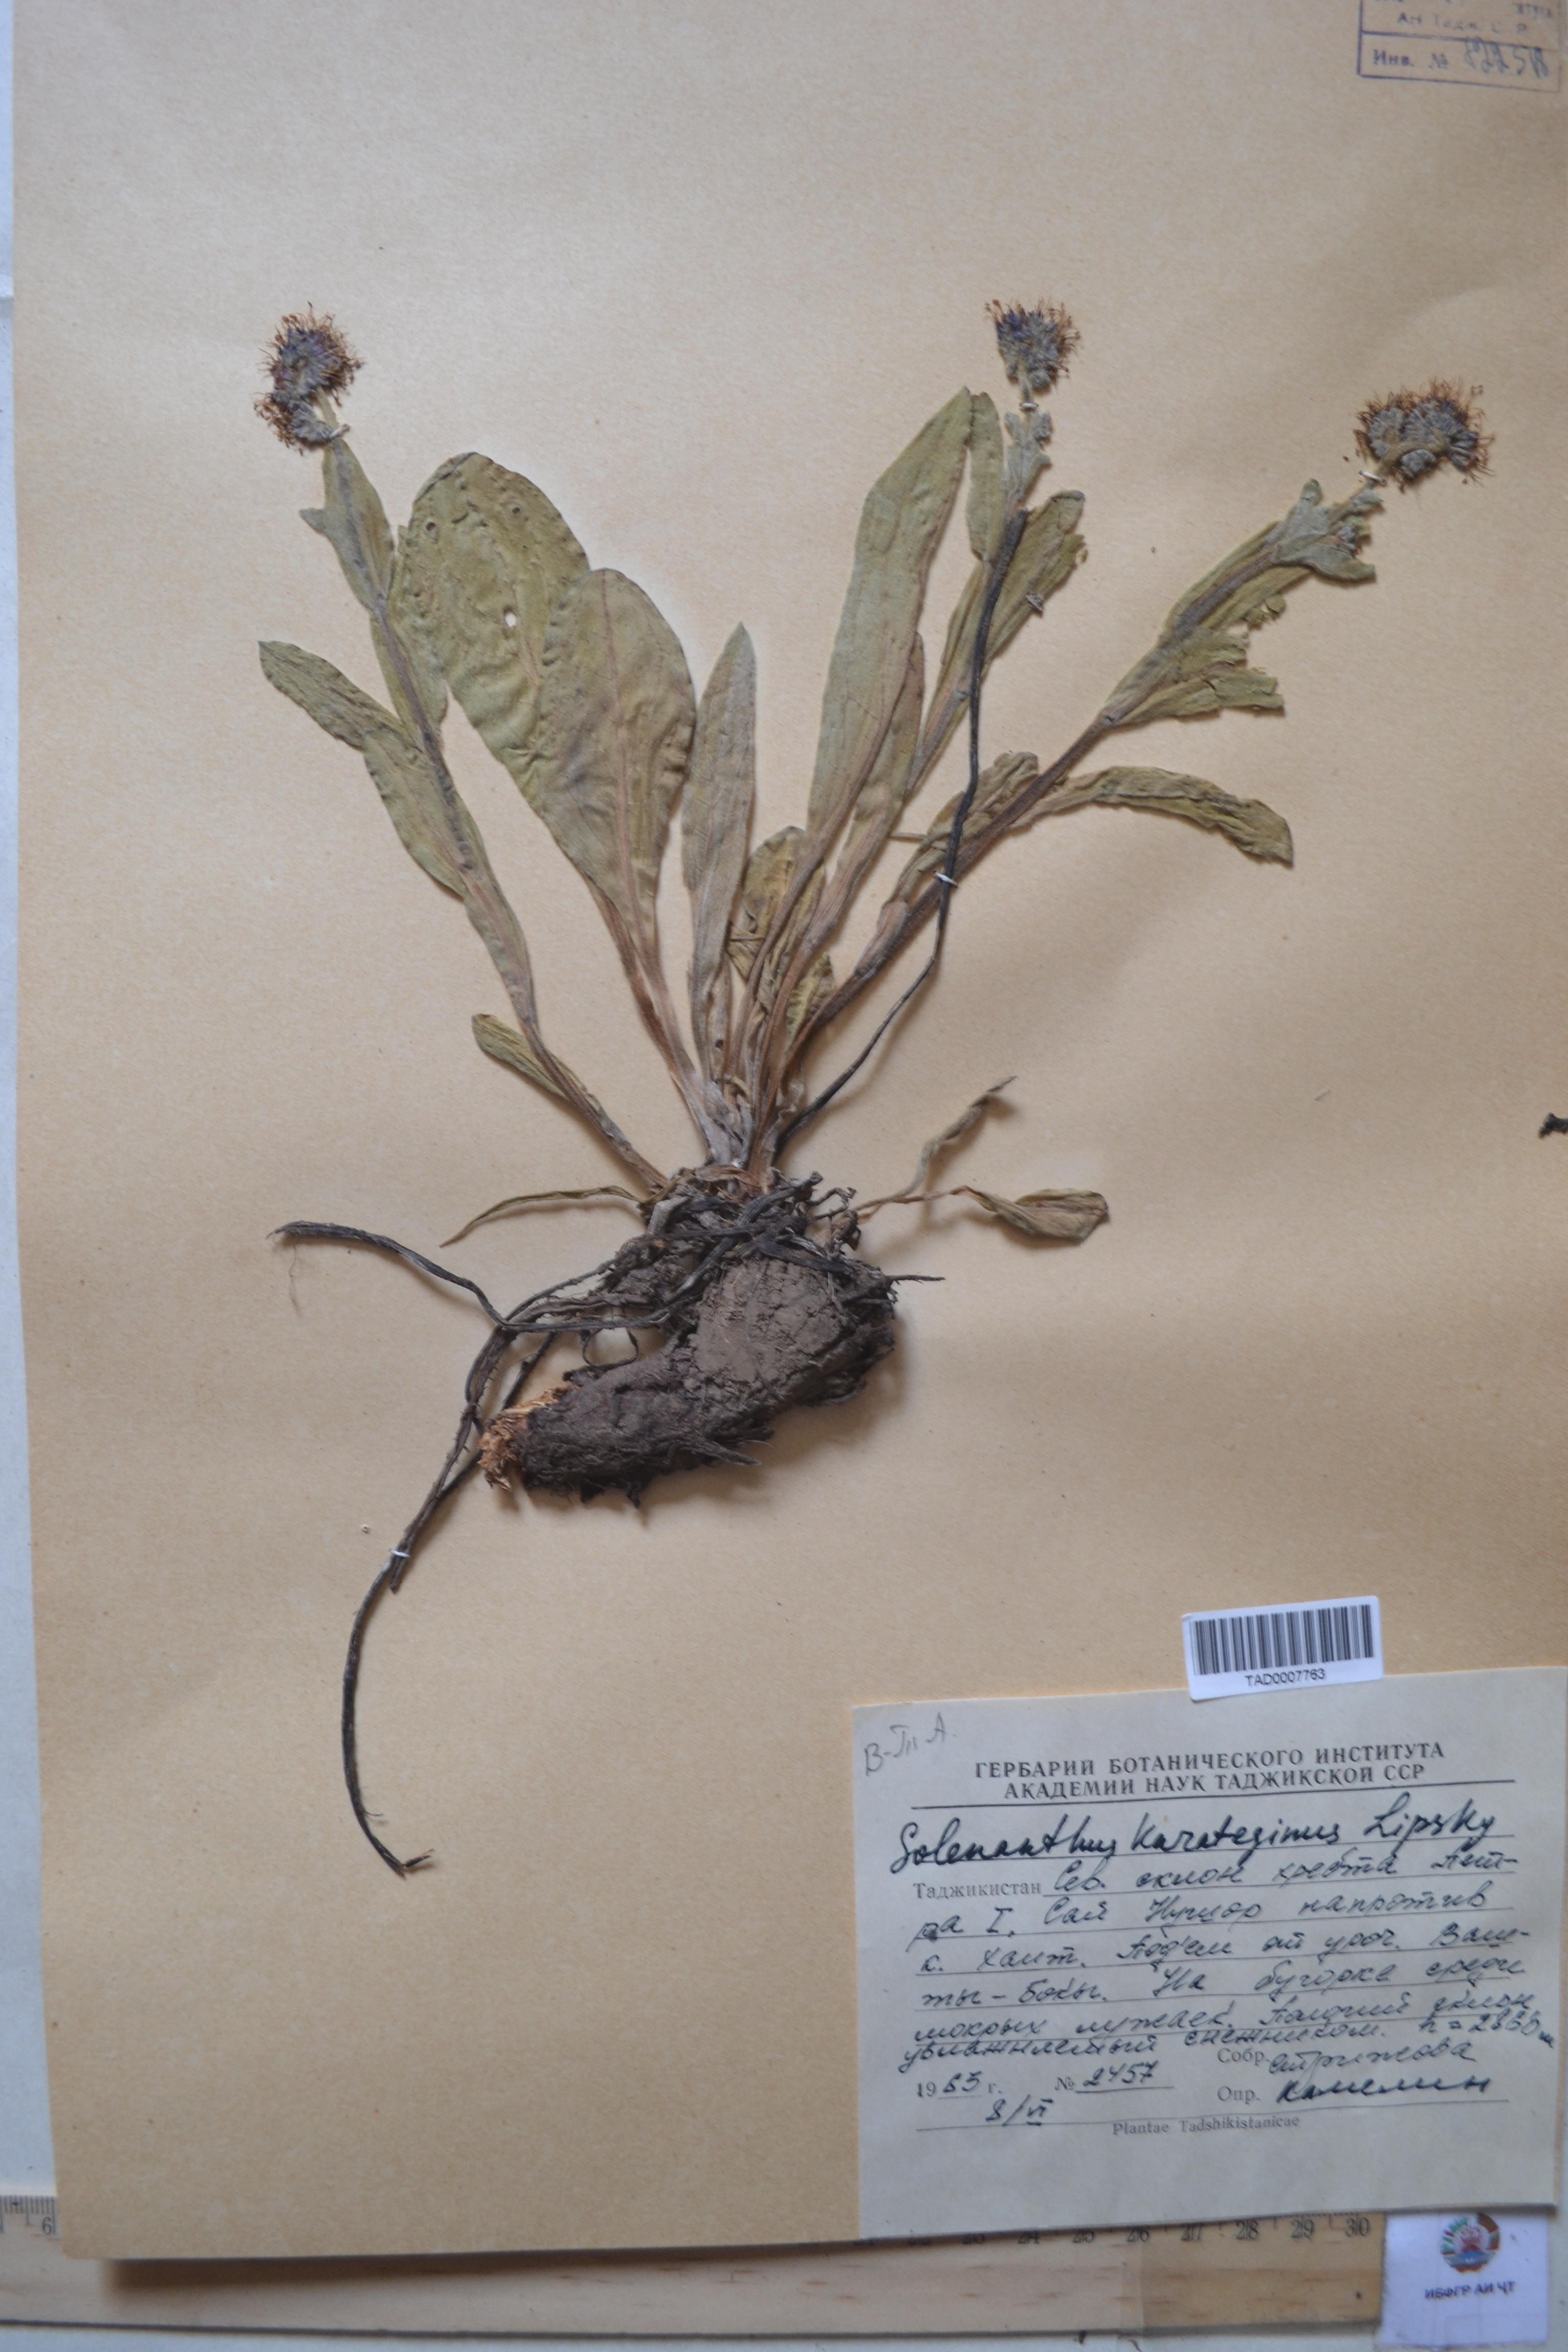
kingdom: Plantae
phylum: Tracheophyta
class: Magnoliopsida
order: Boraginales
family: Boraginaceae
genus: Solenanthus
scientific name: Solenanthus karateginus
